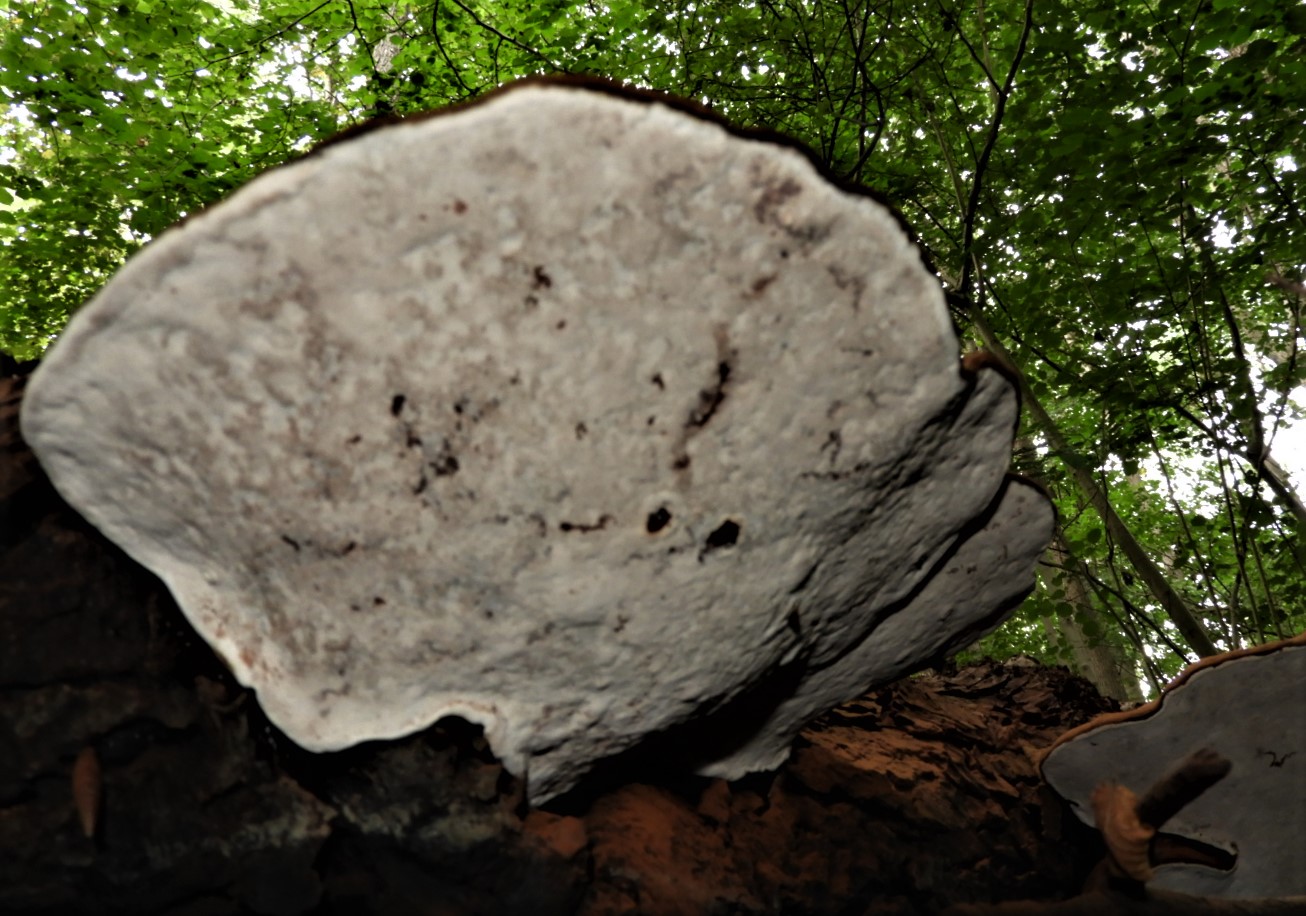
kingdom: Fungi
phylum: Basidiomycota
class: Agaricomycetes
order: Polyporales
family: Polyporaceae
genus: Ganoderma
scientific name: Ganoderma applanatum
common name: flad lakporesvamp
